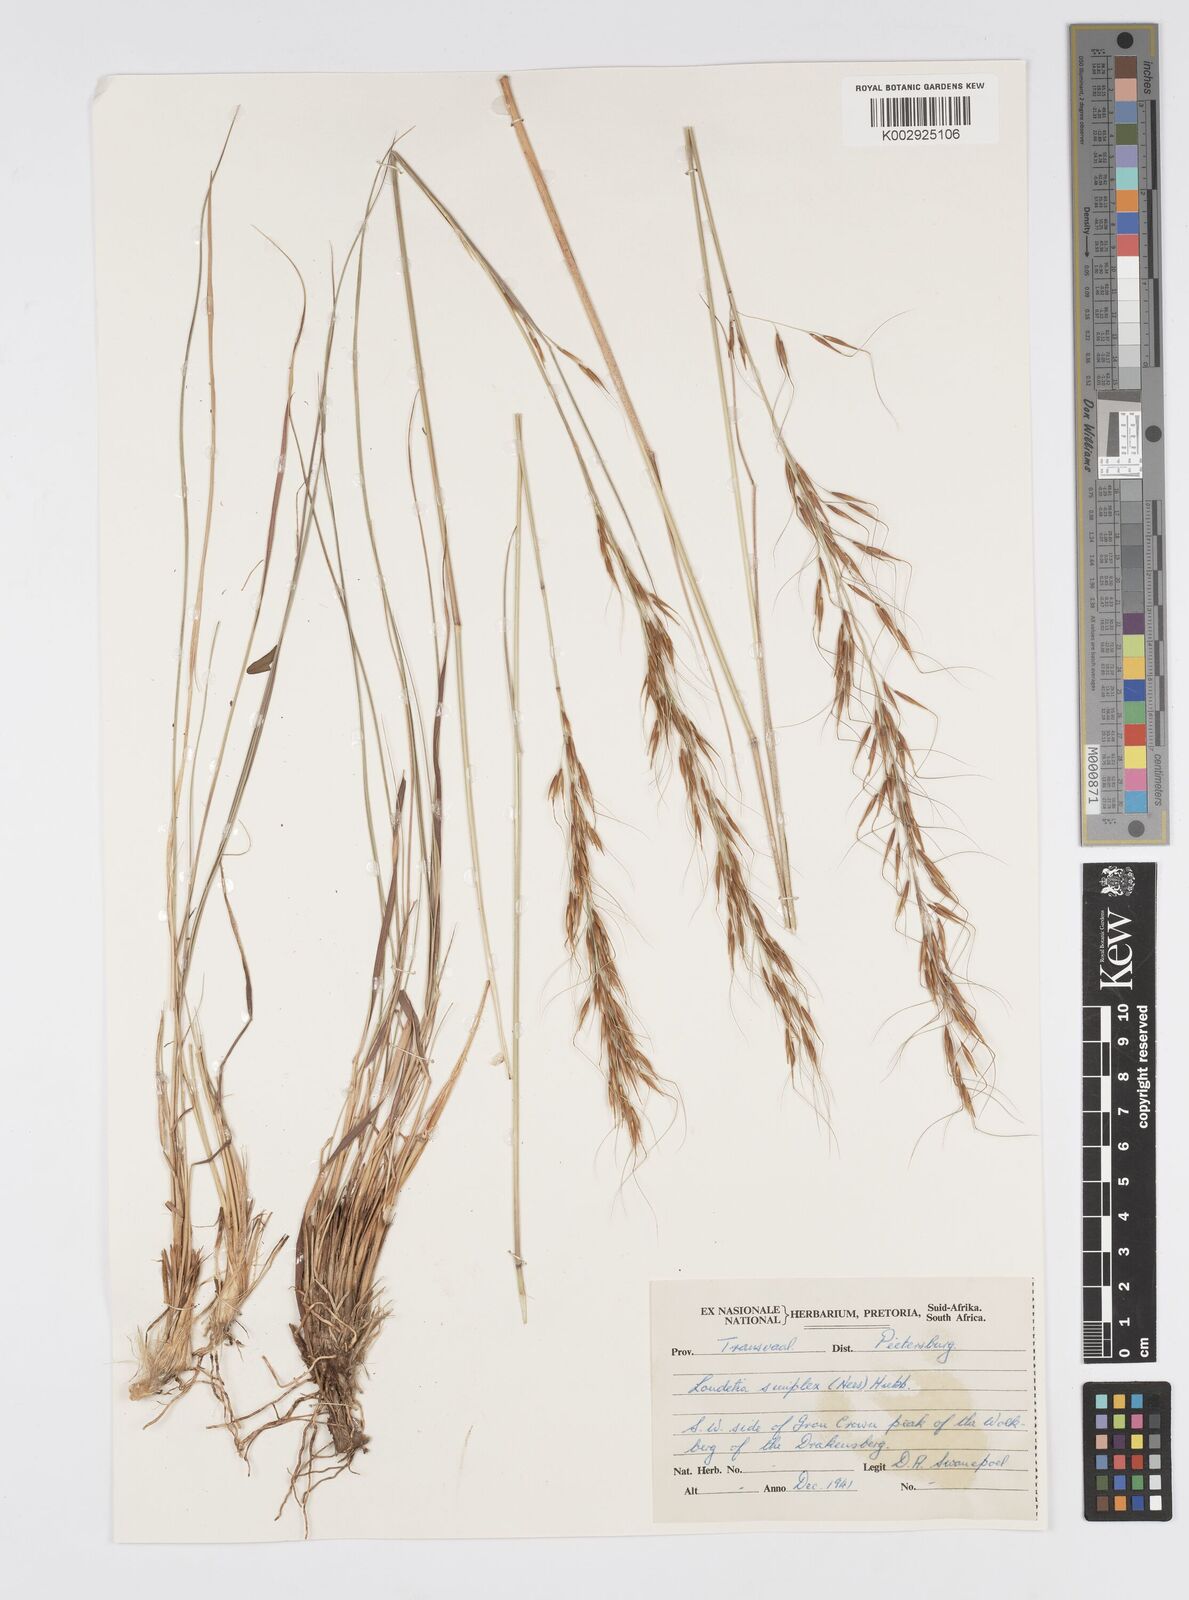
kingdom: Plantae
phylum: Tracheophyta
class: Liliopsida
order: Poales
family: Poaceae
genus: Loudetia
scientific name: Loudetia simplex
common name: Common russet grass
